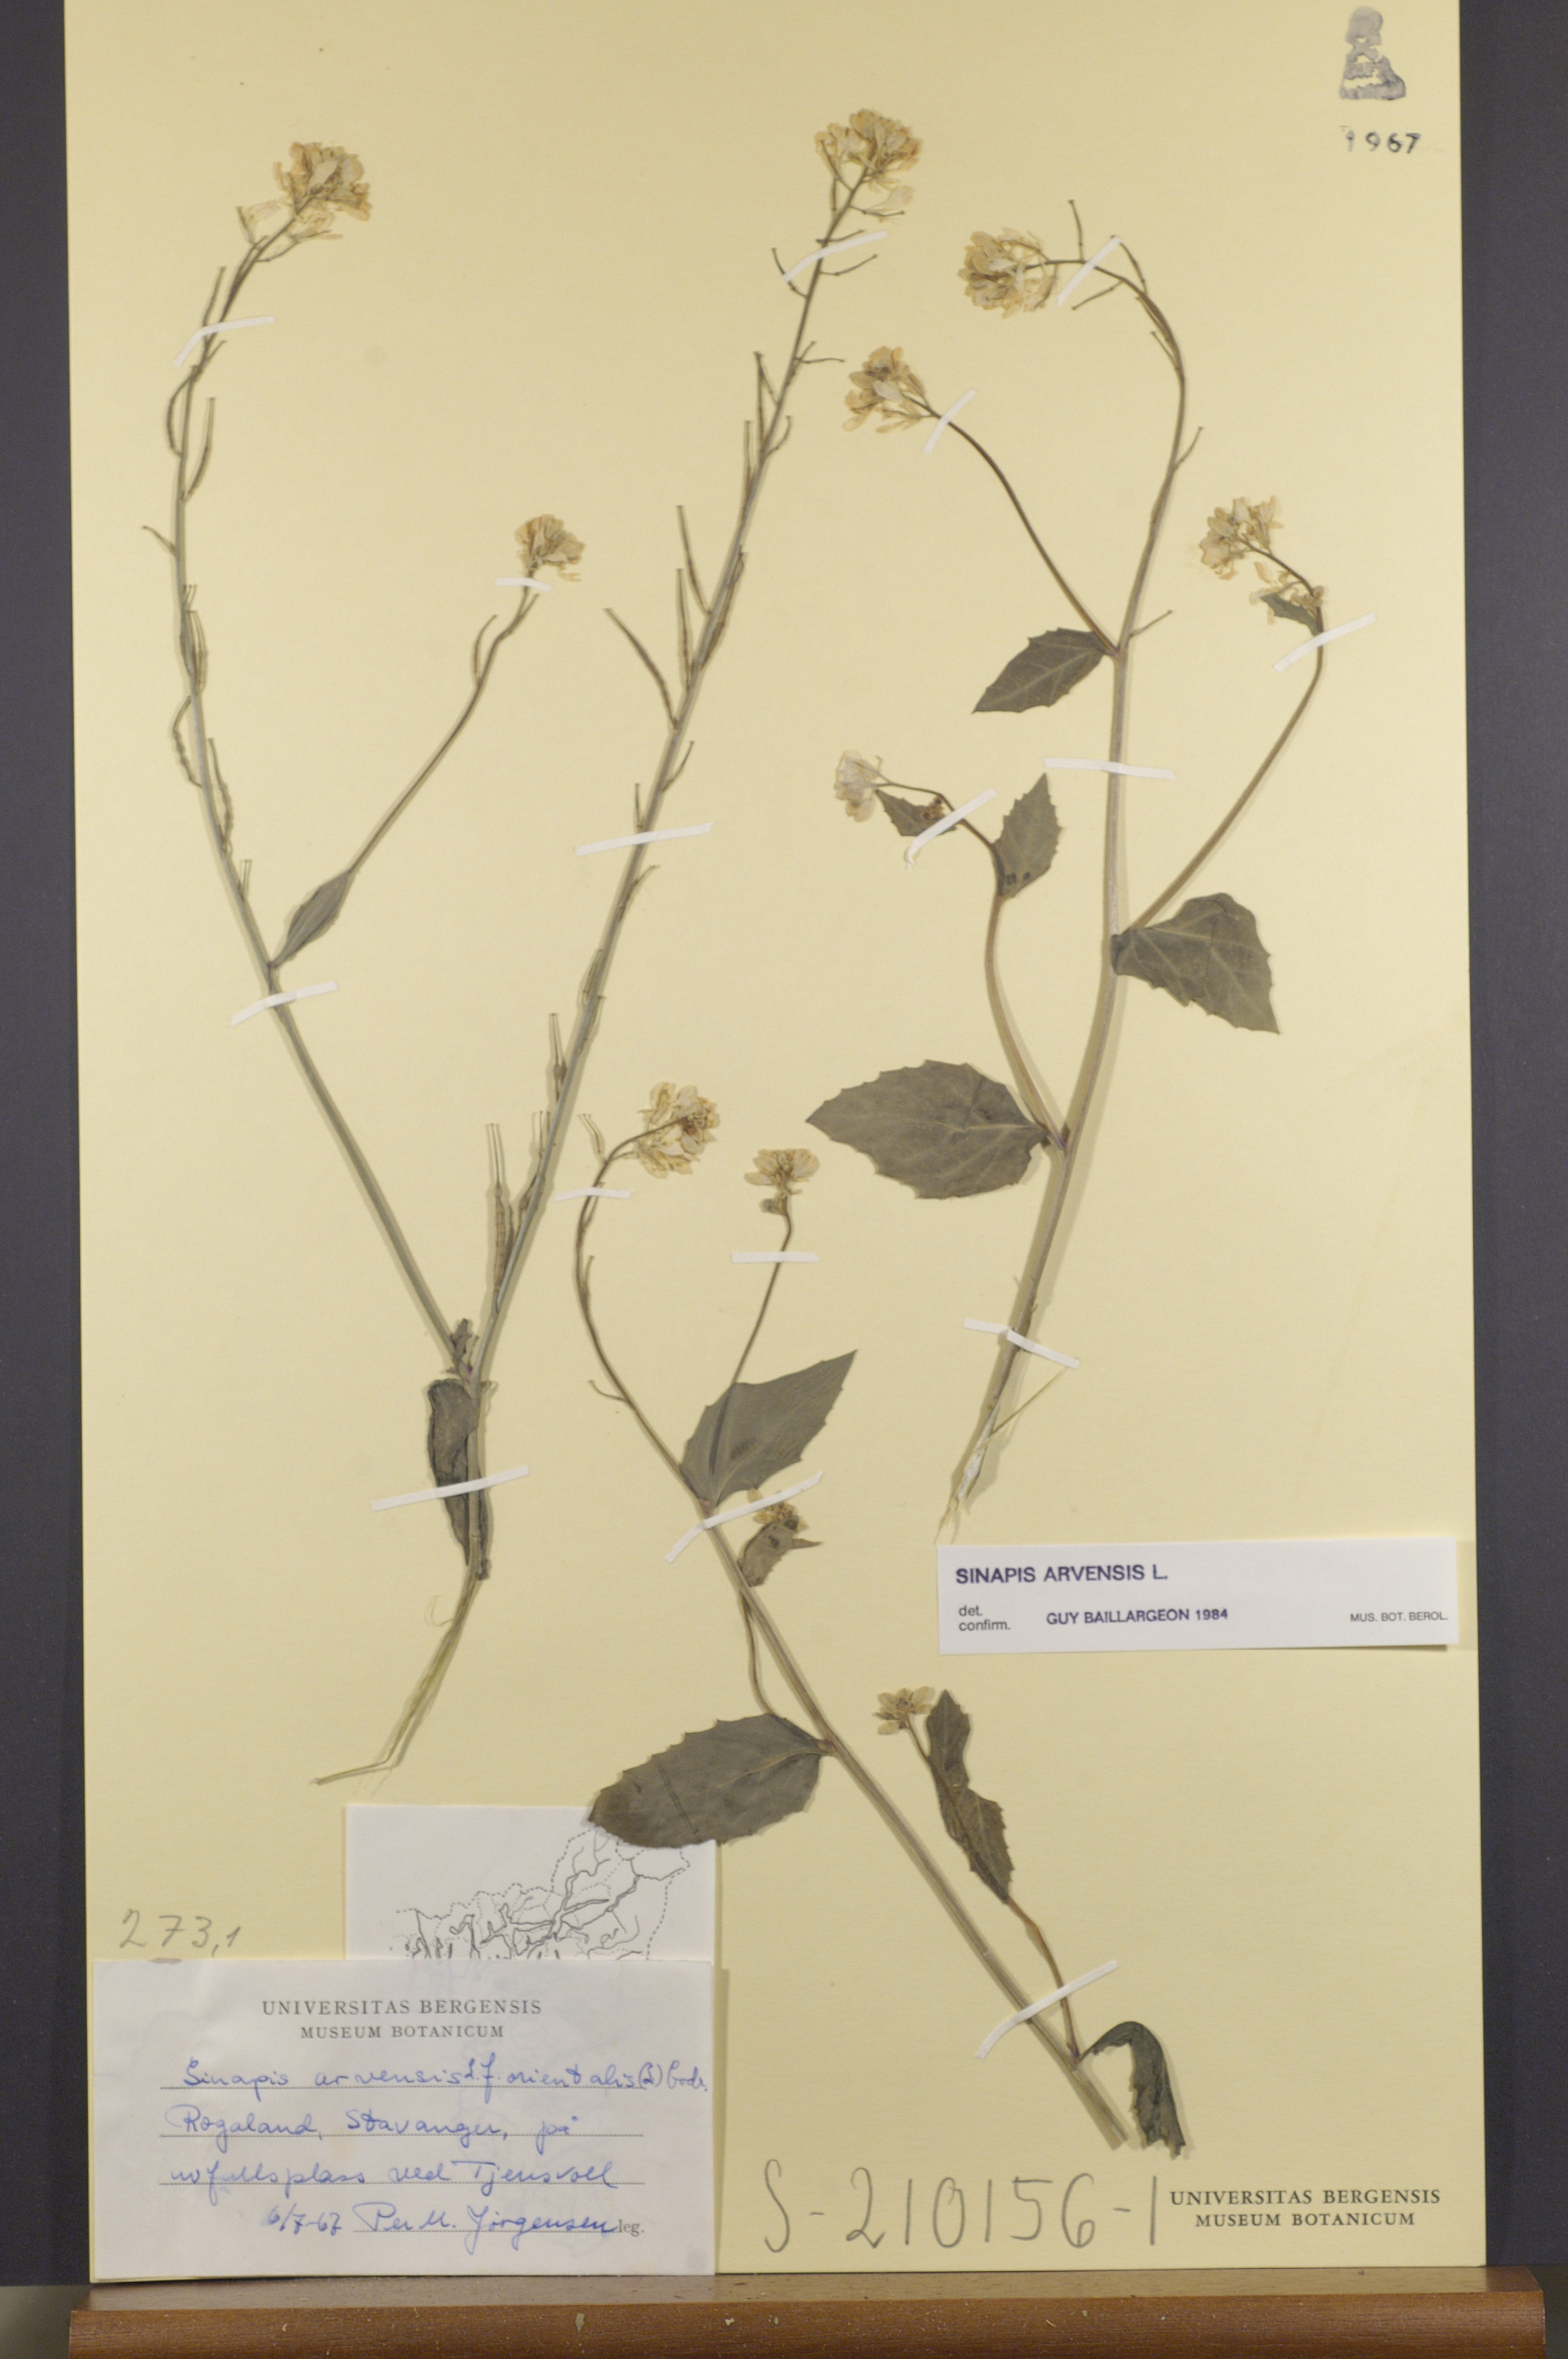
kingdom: Plantae
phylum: Tracheophyta
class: Magnoliopsida
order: Brassicales
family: Brassicaceae
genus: Sinapis
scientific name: Sinapis arvensis
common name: Charlock
